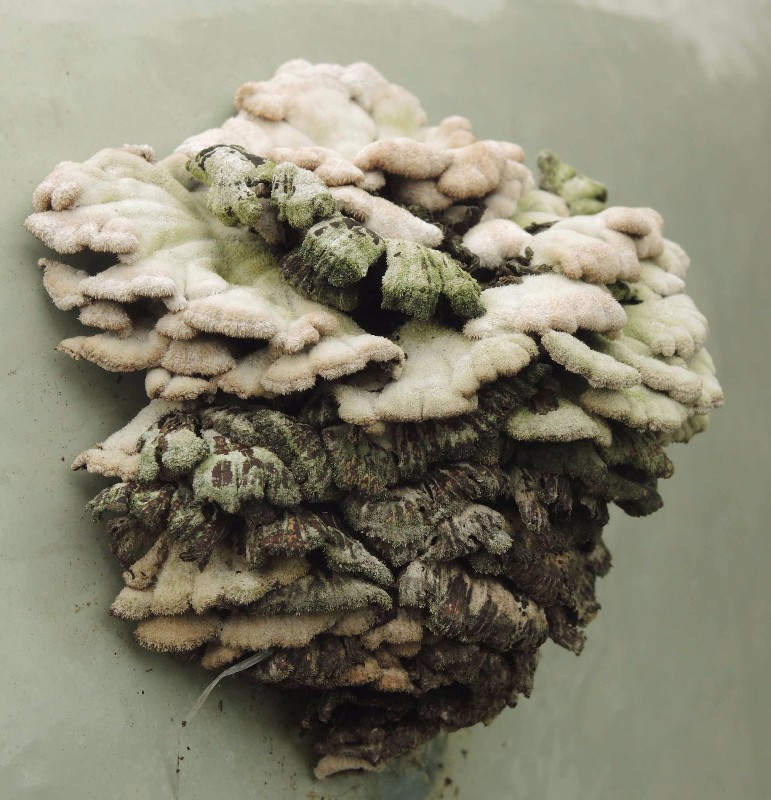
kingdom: Fungi
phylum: Basidiomycota
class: Agaricomycetes
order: Agaricales
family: Schizophyllaceae
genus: Schizophyllum
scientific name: Schizophyllum commune
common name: kløvblad
